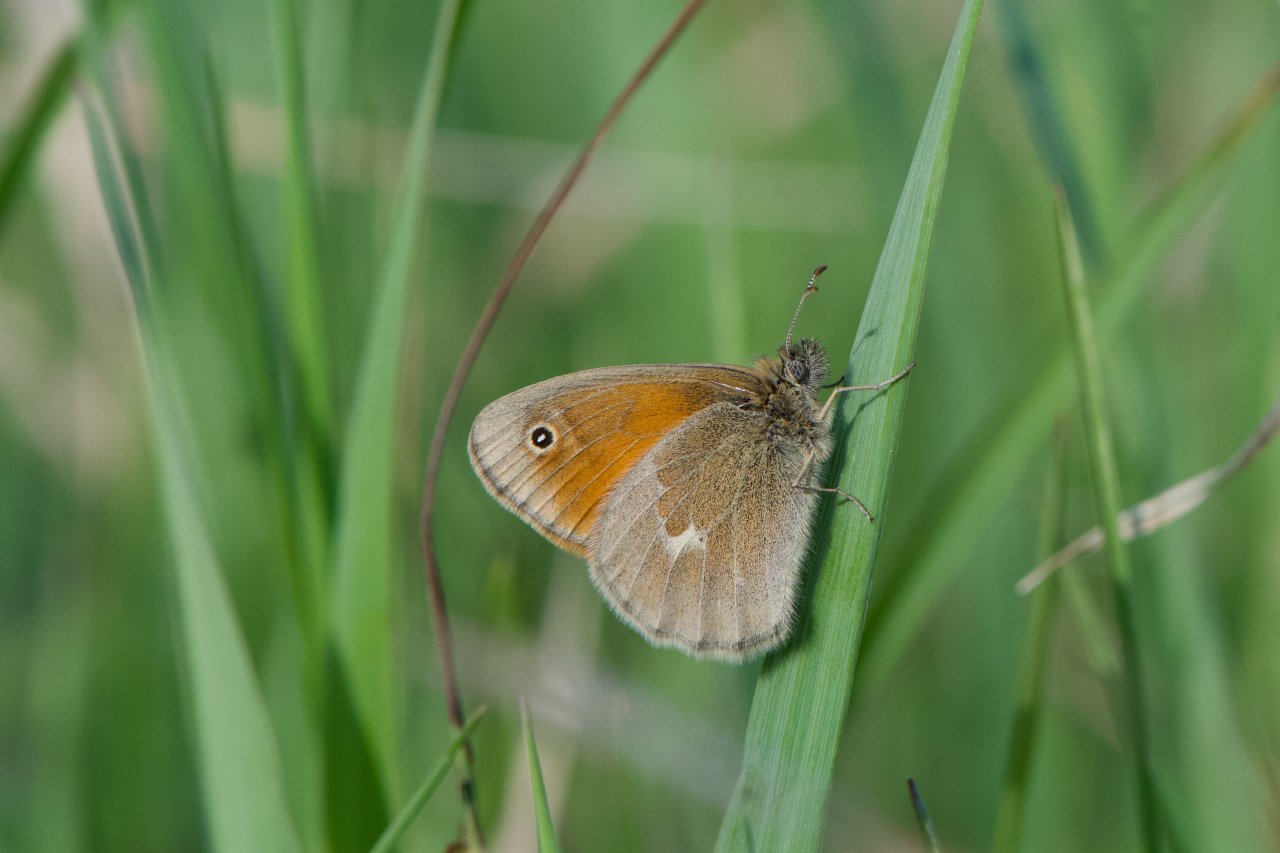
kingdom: Animalia
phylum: Arthropoda
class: Insecta
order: Lepidoptera
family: Nymphalidae
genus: Coenonympha
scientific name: Coenonympha tullia
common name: Large Heath
